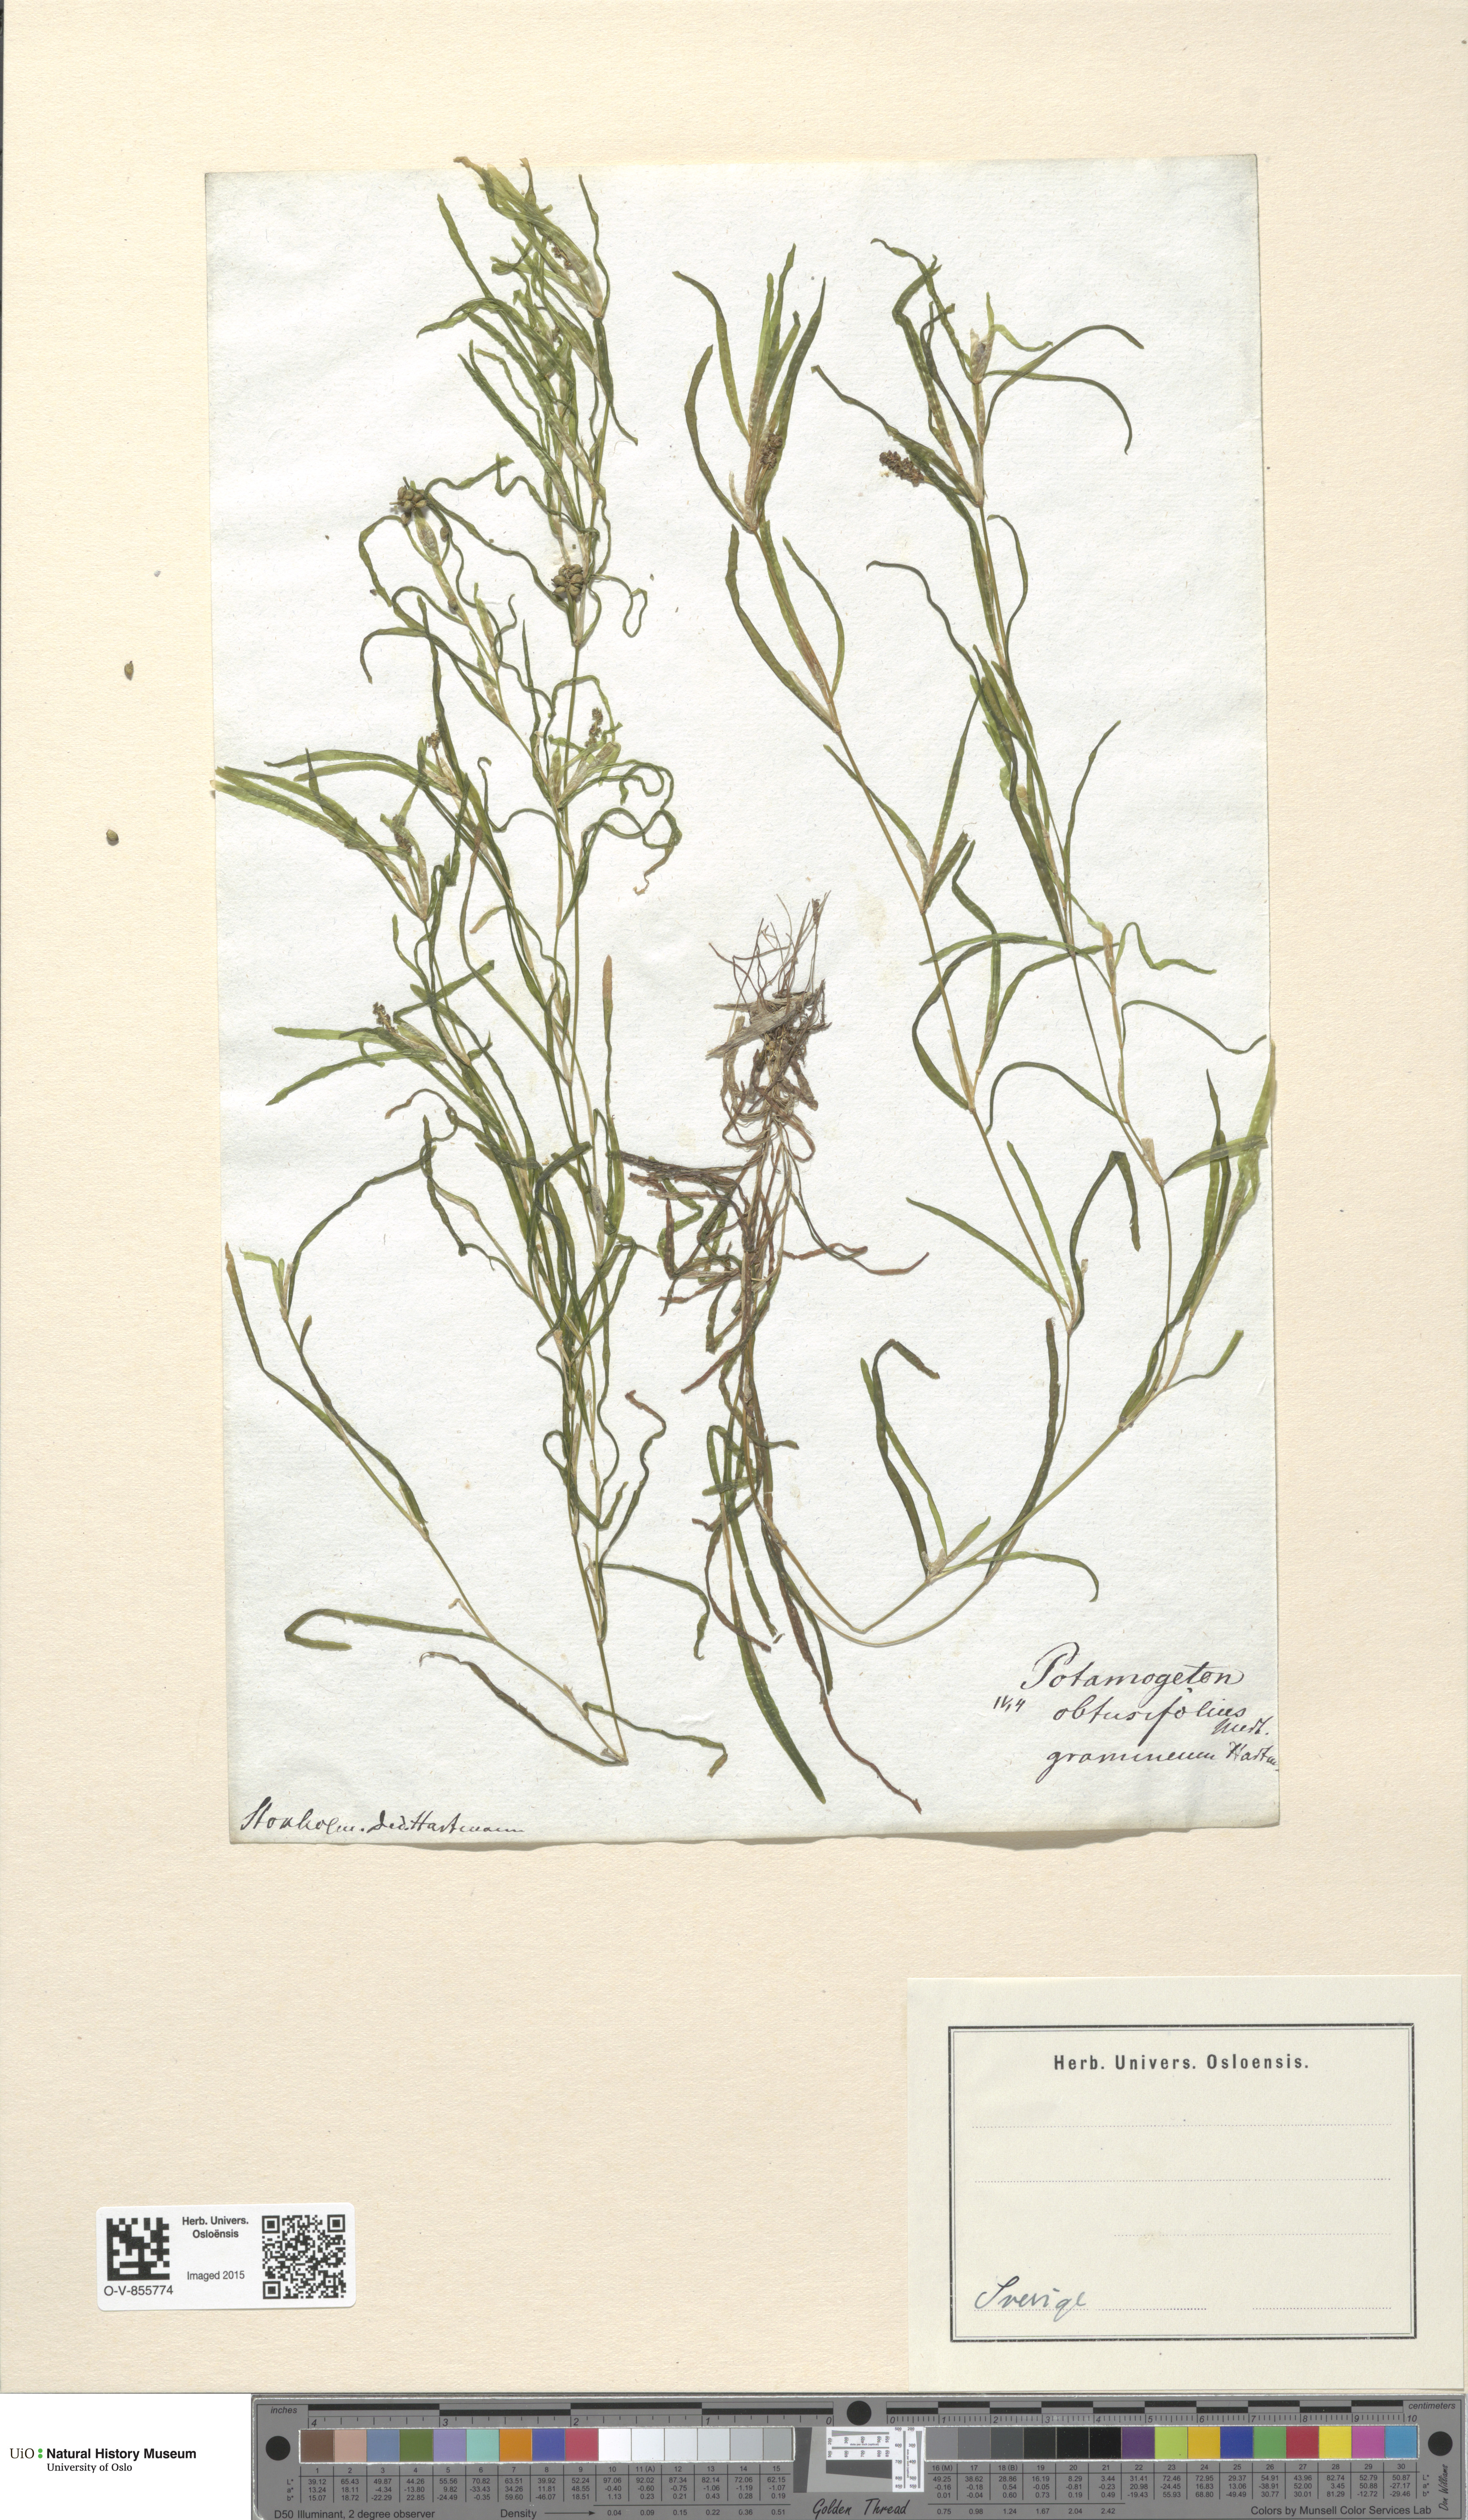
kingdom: Plantae
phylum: Tracheophyta
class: Liliopsida
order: Alismatales
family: Potamogetonaceae
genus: Potamogeton
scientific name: Potamogeton obtusifolius
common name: Blunt-leaved pondweed
